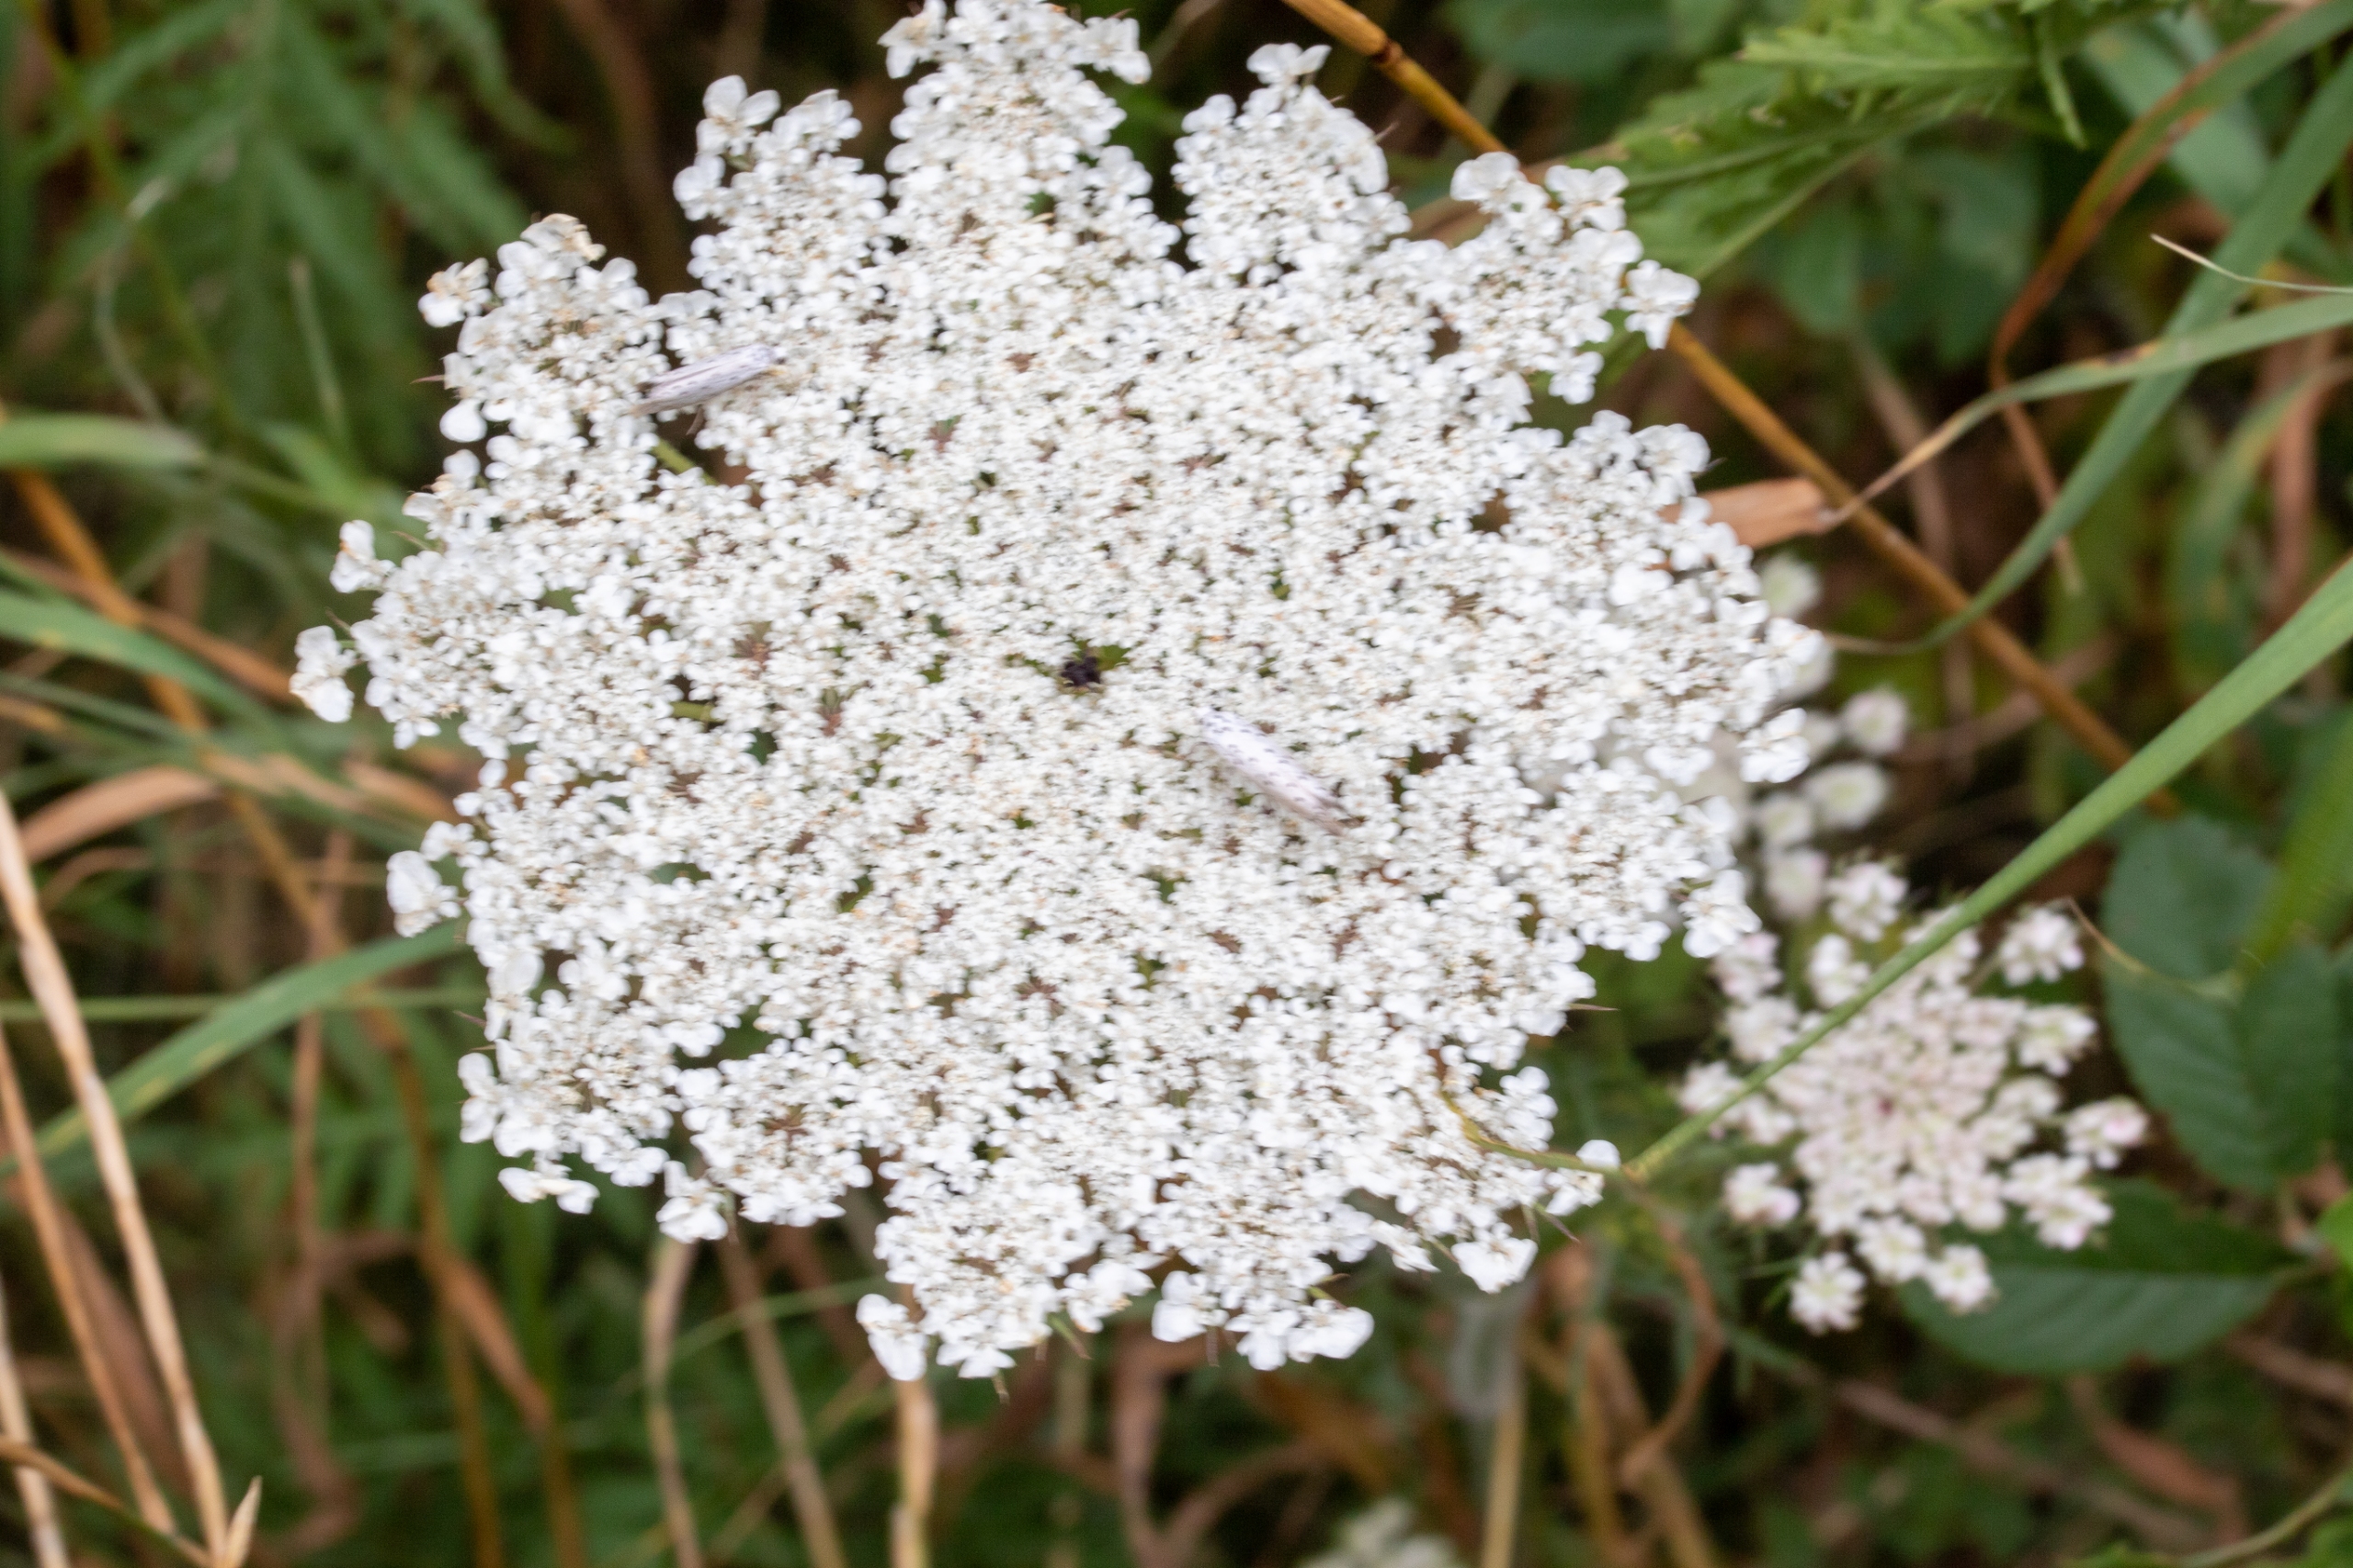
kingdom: Plantae
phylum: Tracheophyta
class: Magnoliopsida
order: Apiales
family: Apiaceae
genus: Daucus
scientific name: Daucus carota
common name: Gulerod
